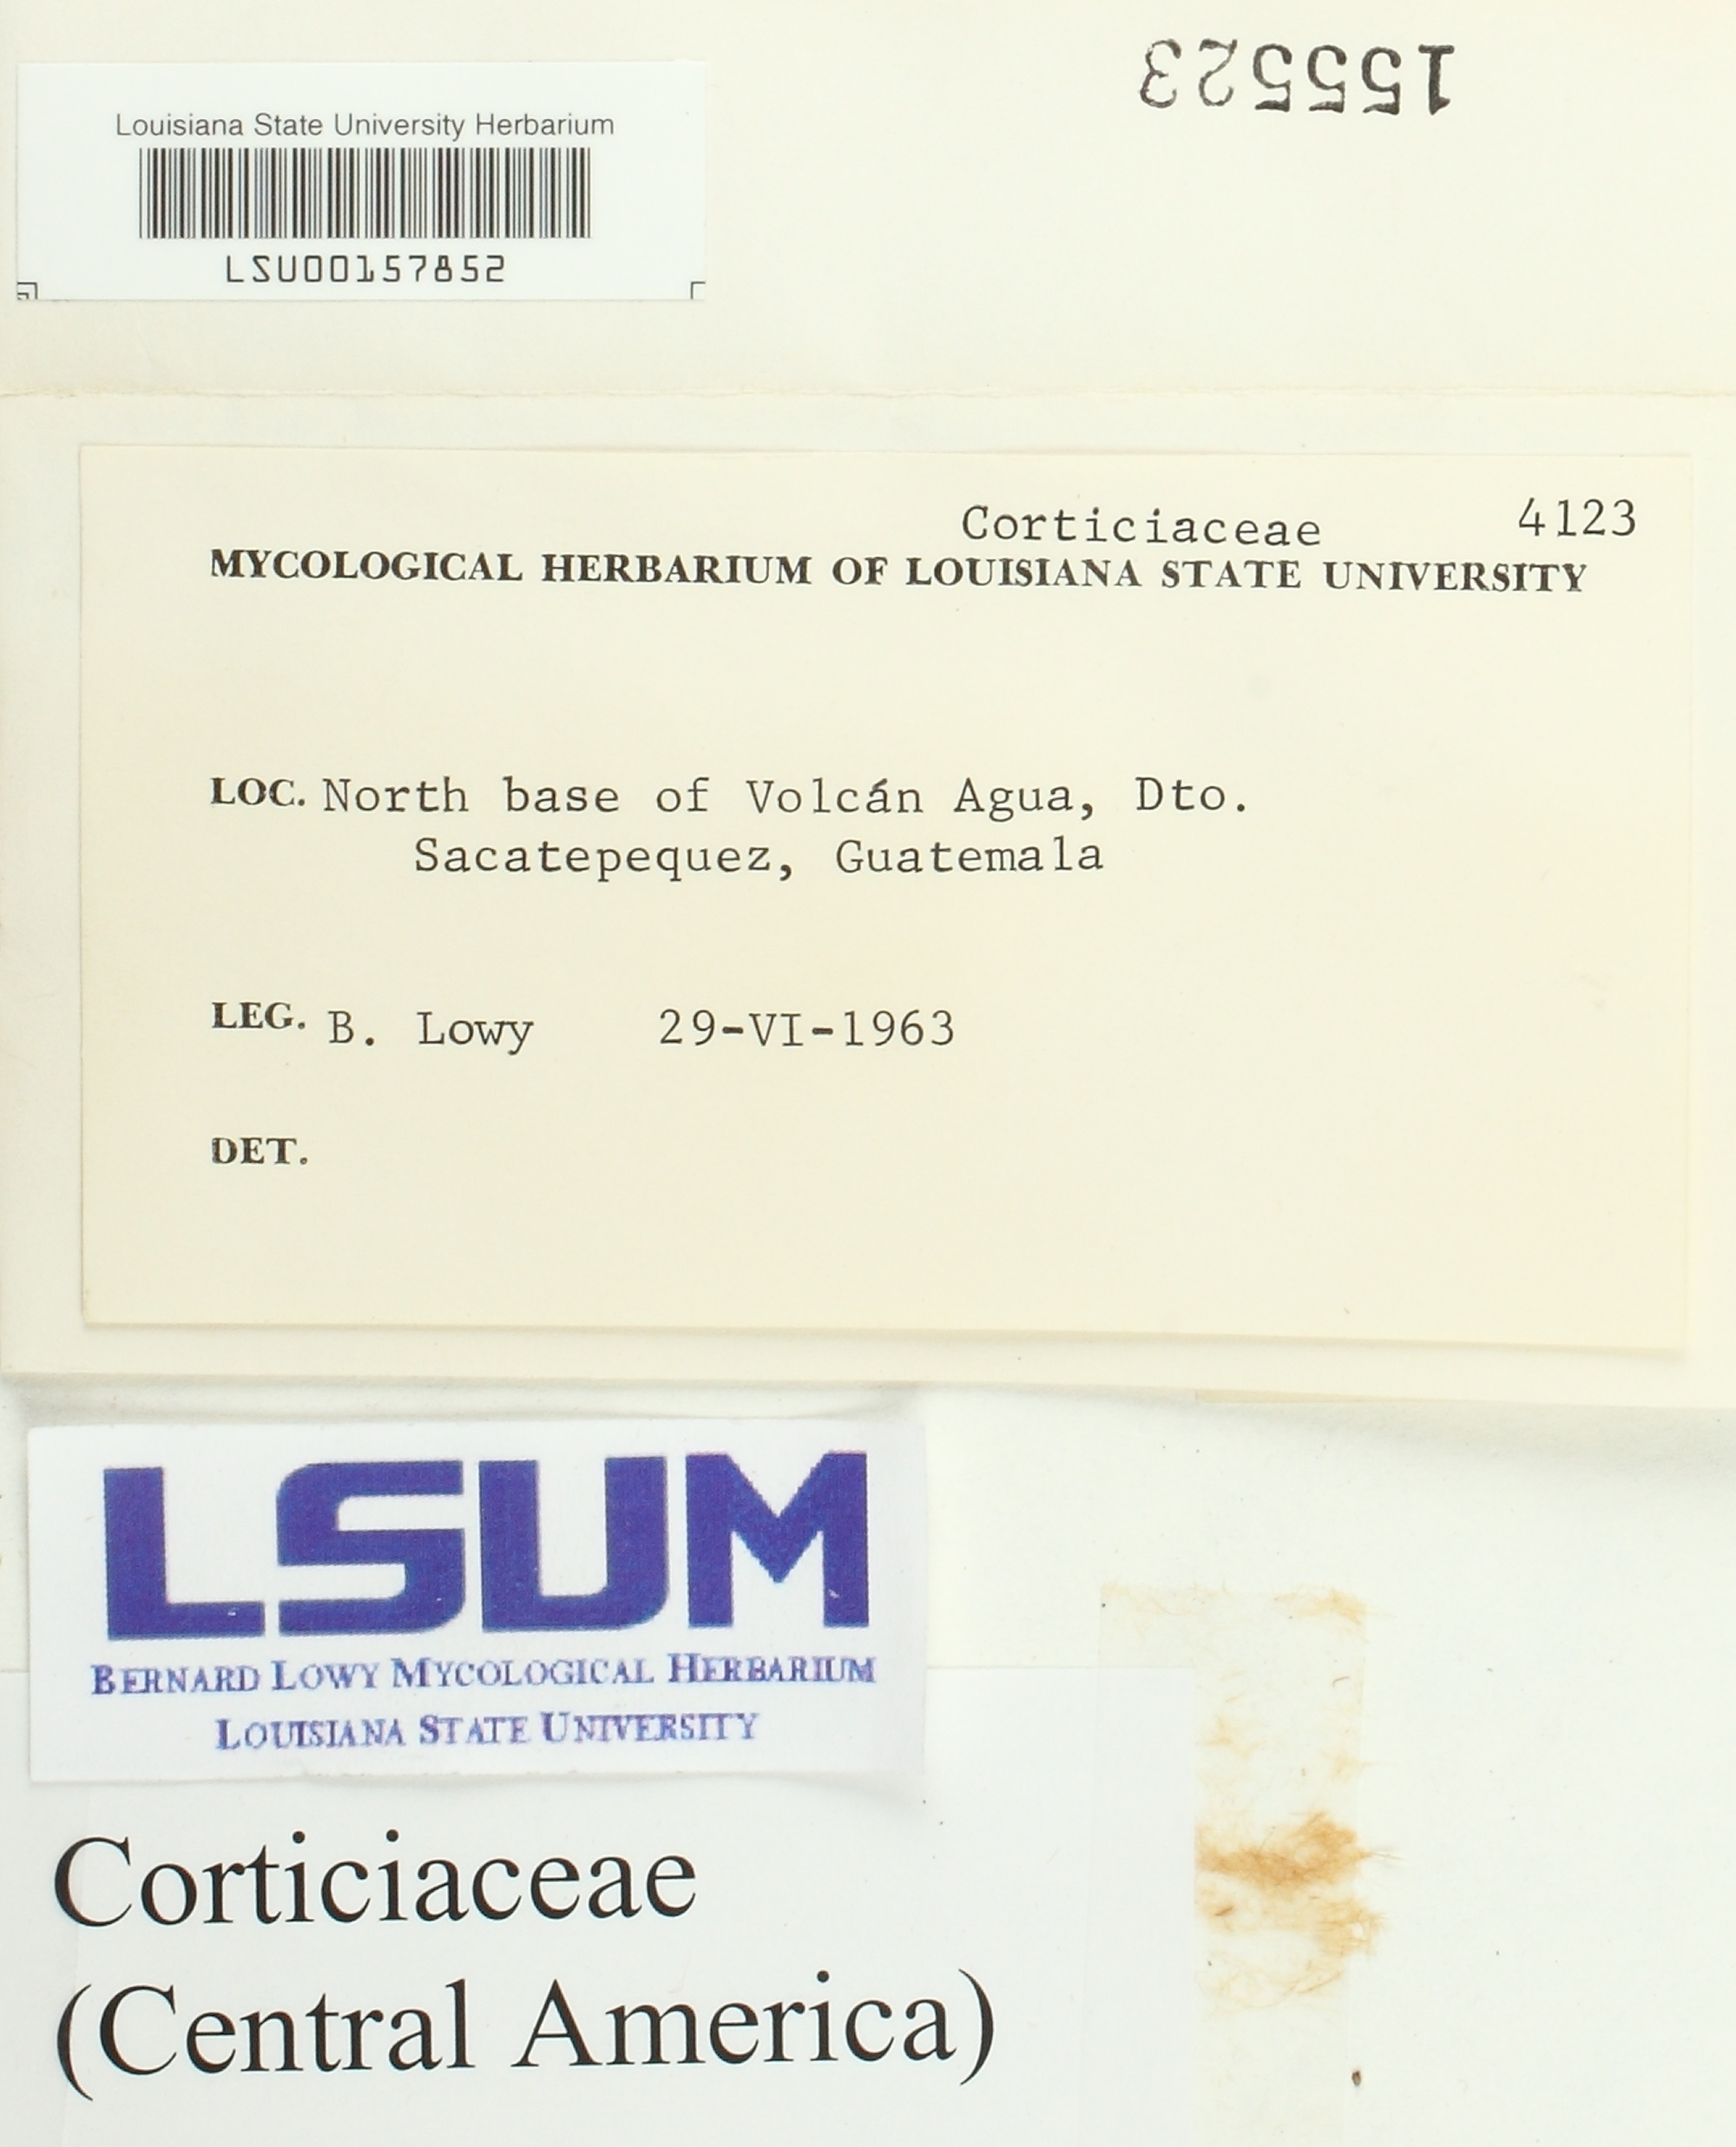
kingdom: Fungi
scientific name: Fungi
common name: Fungi
